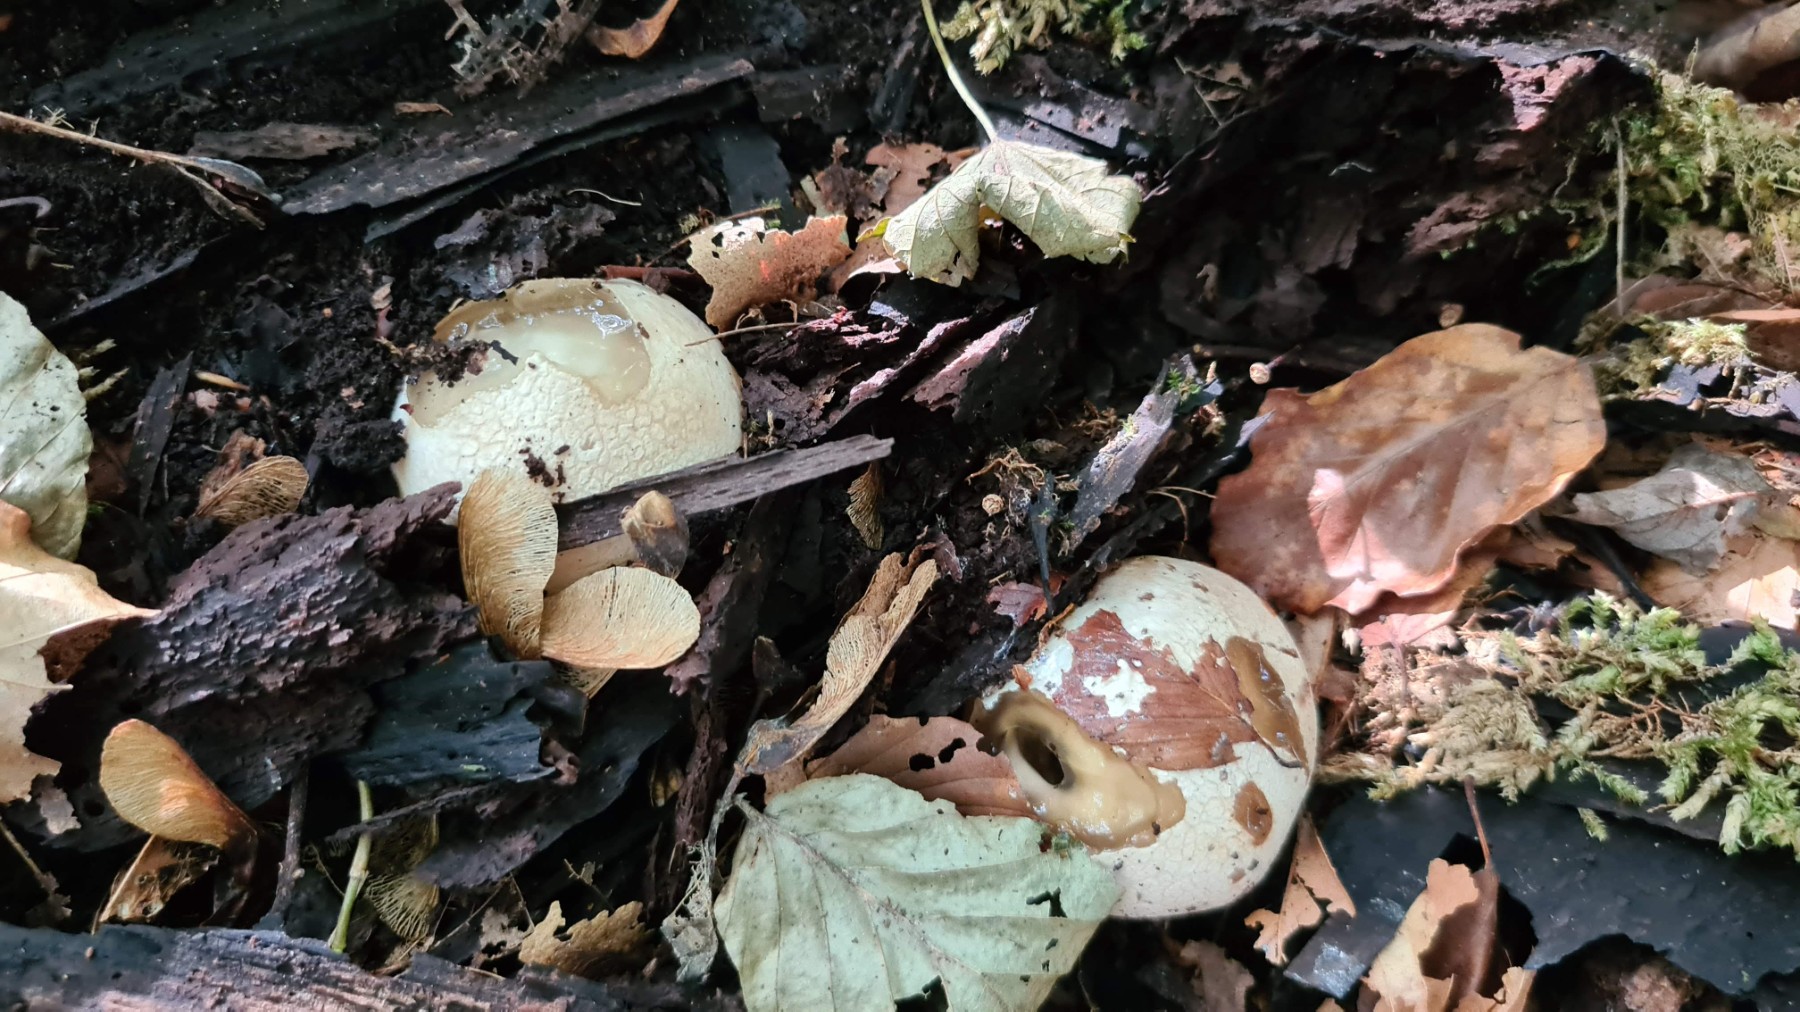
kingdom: Fungi
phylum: Basidiomycota
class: Agaricomycetes
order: Phallales
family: Phallaceae
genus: Phallus
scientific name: Phallus impudicus
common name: almindelig stinksvamp
